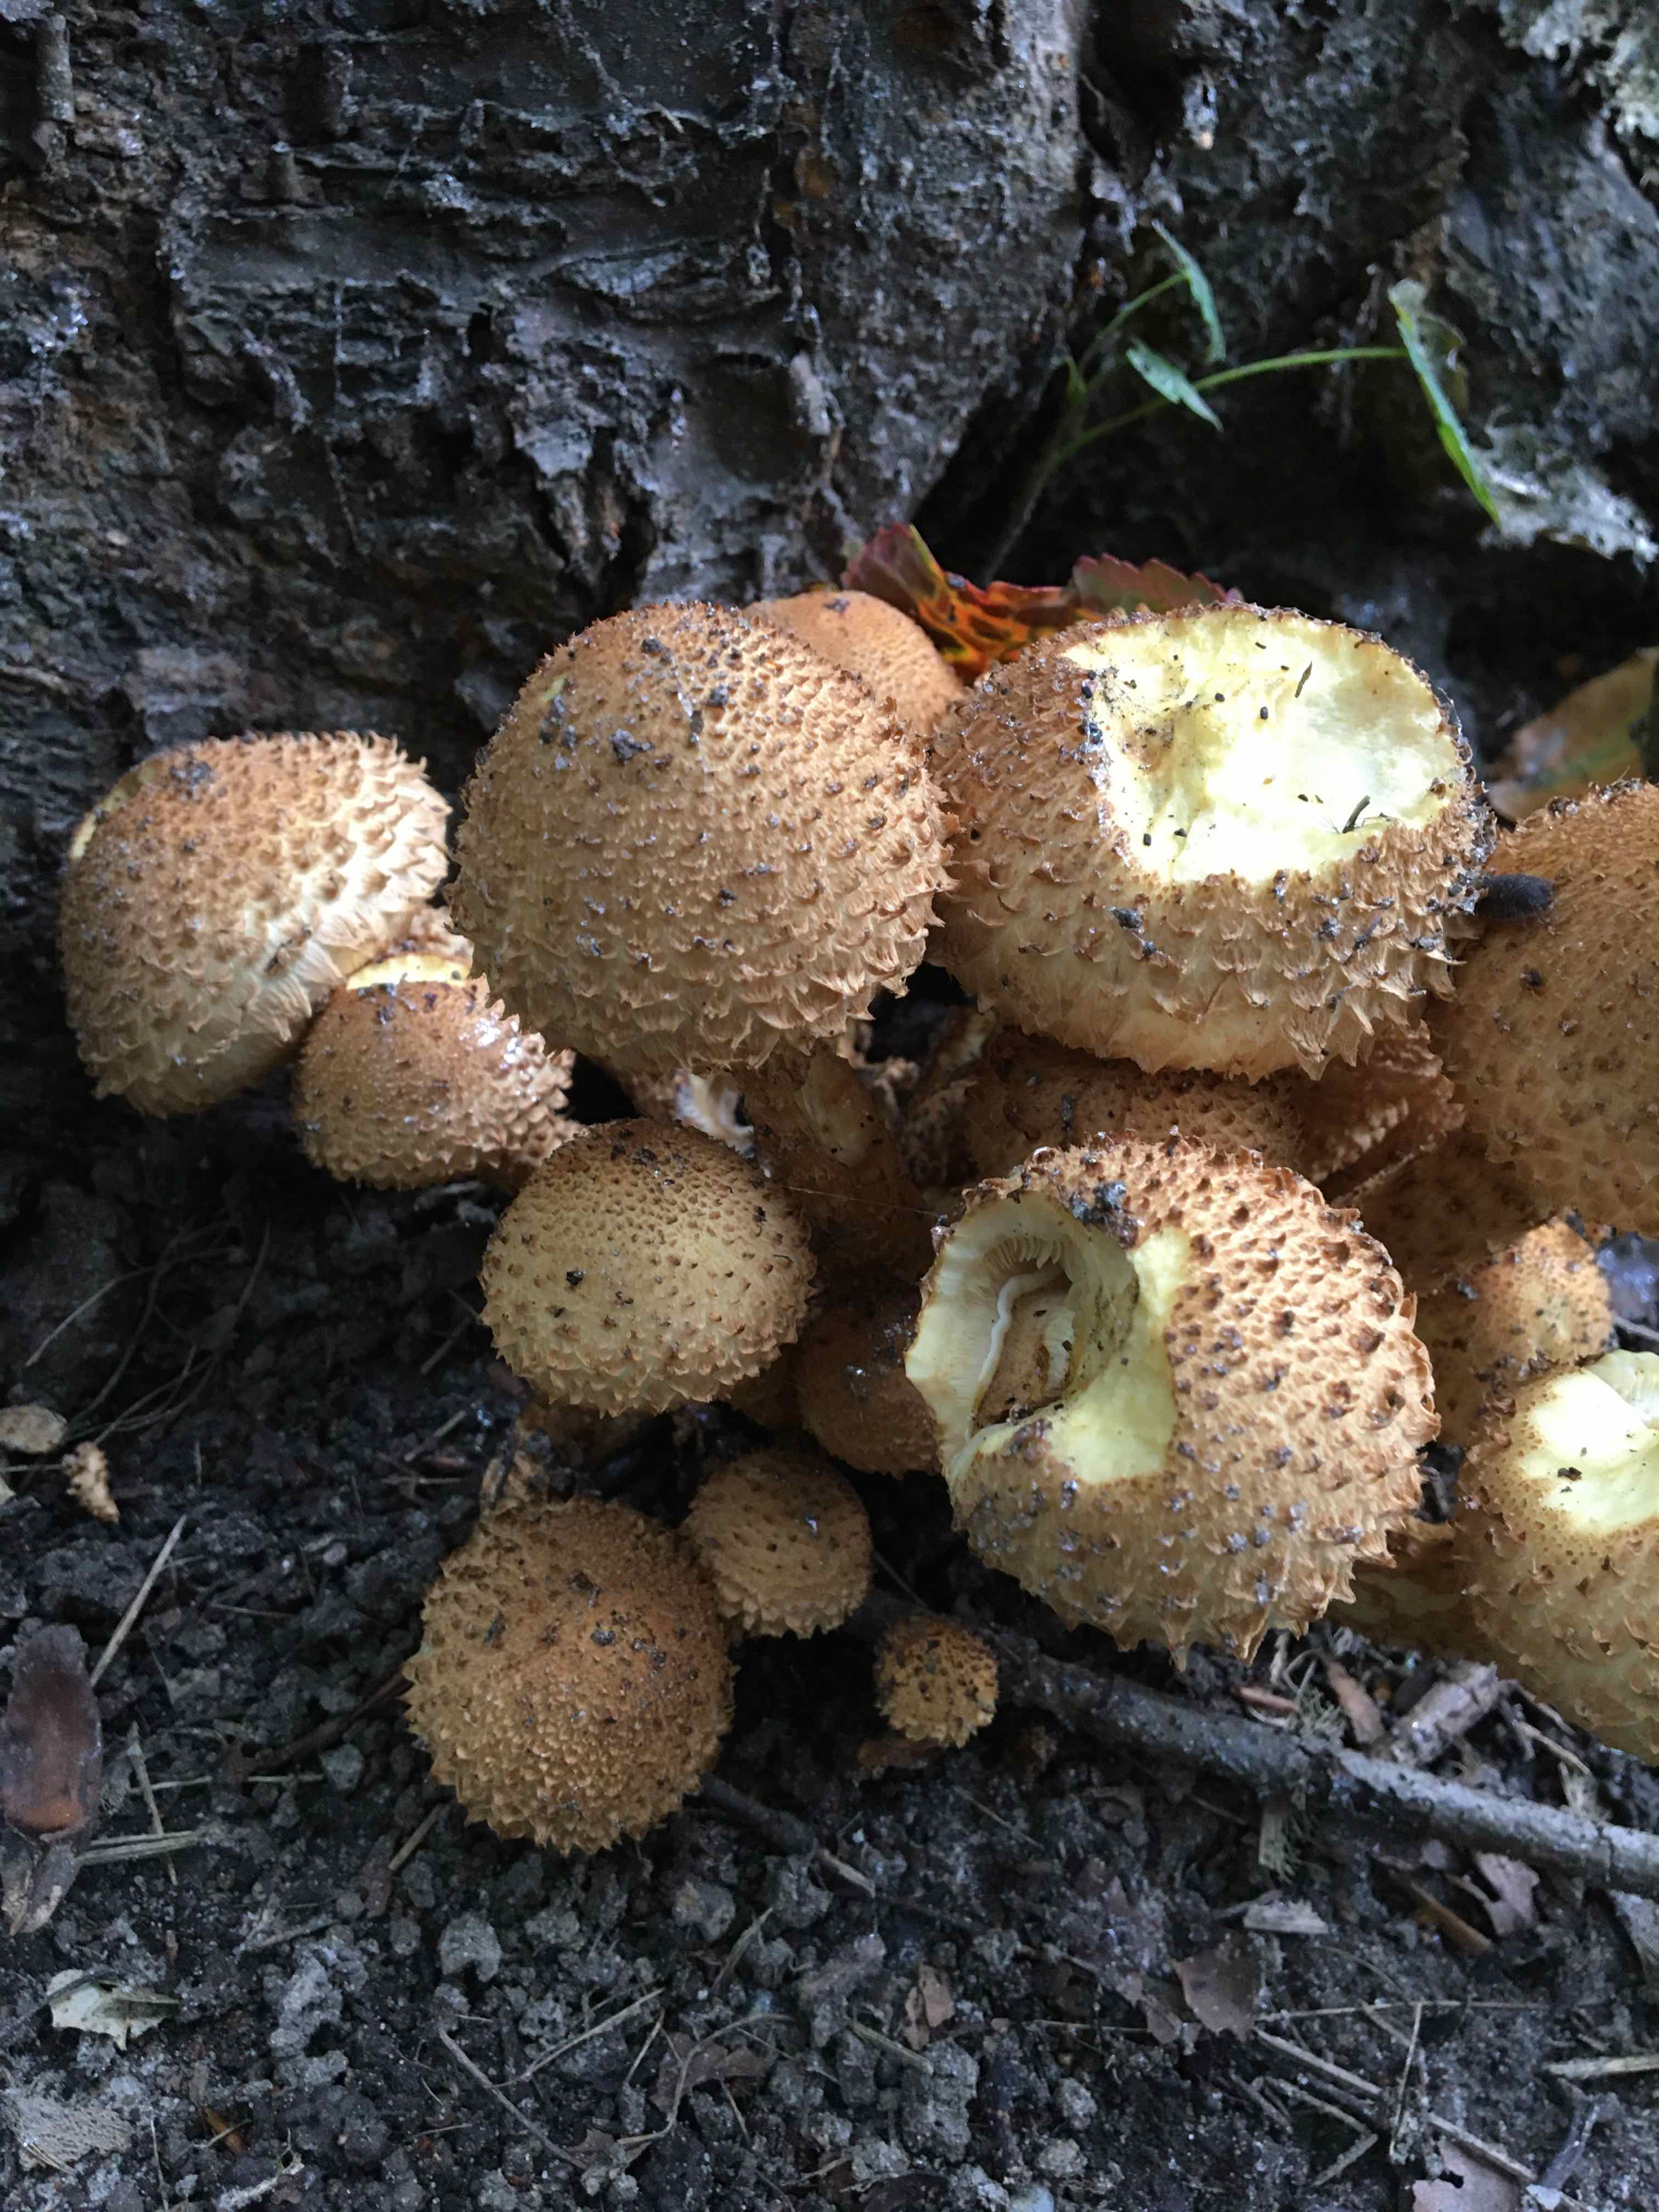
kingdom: Fungi
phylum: Basidiomycota
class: Agaricomycetes
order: Agaricales
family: Strophariaceae
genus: Pholiota
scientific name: Pholiota squarrosa
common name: krumskællet skælhat
